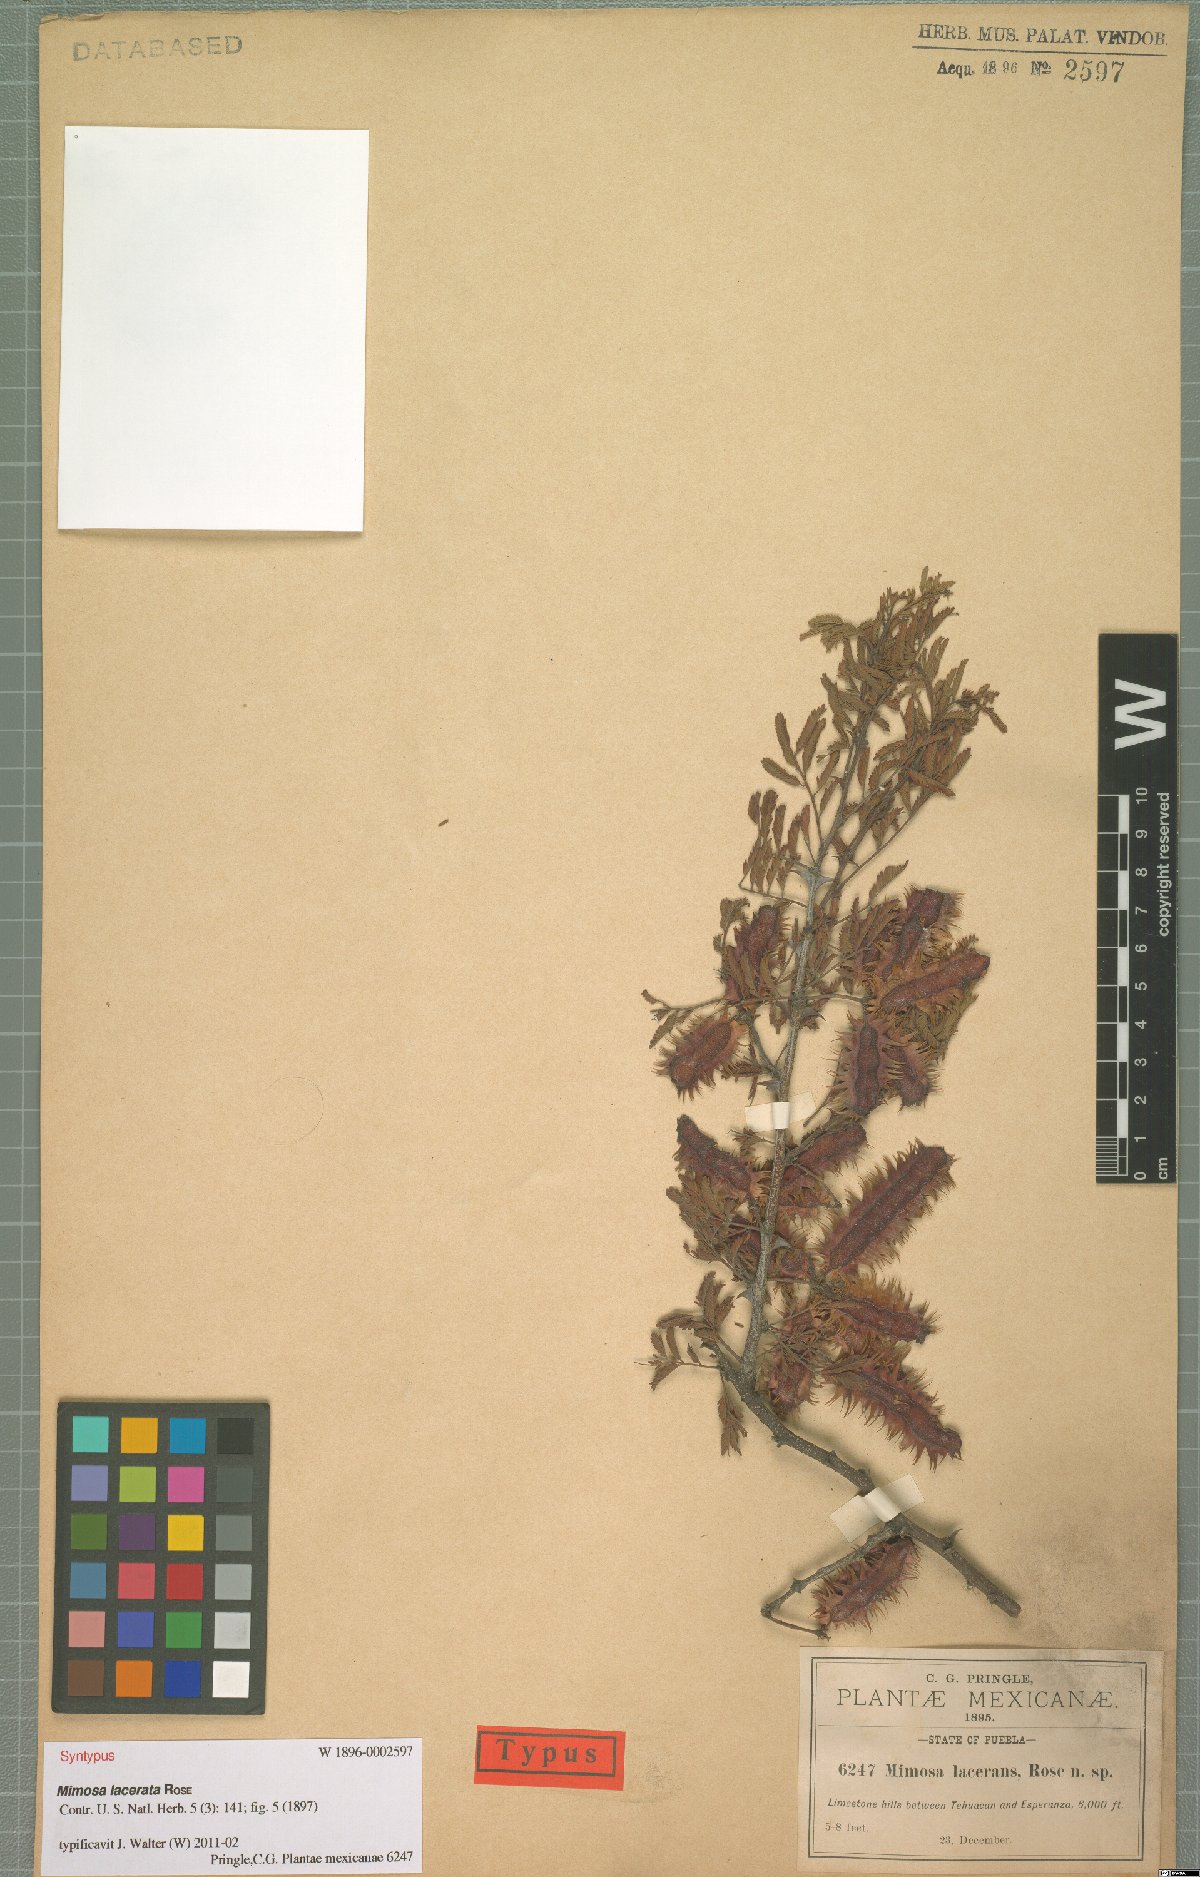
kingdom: Plantae
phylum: Tracheophyta
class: Magnoliopsida
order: Fabales
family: Fabaceae
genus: Mimosa
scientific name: Mimosa lacerata
